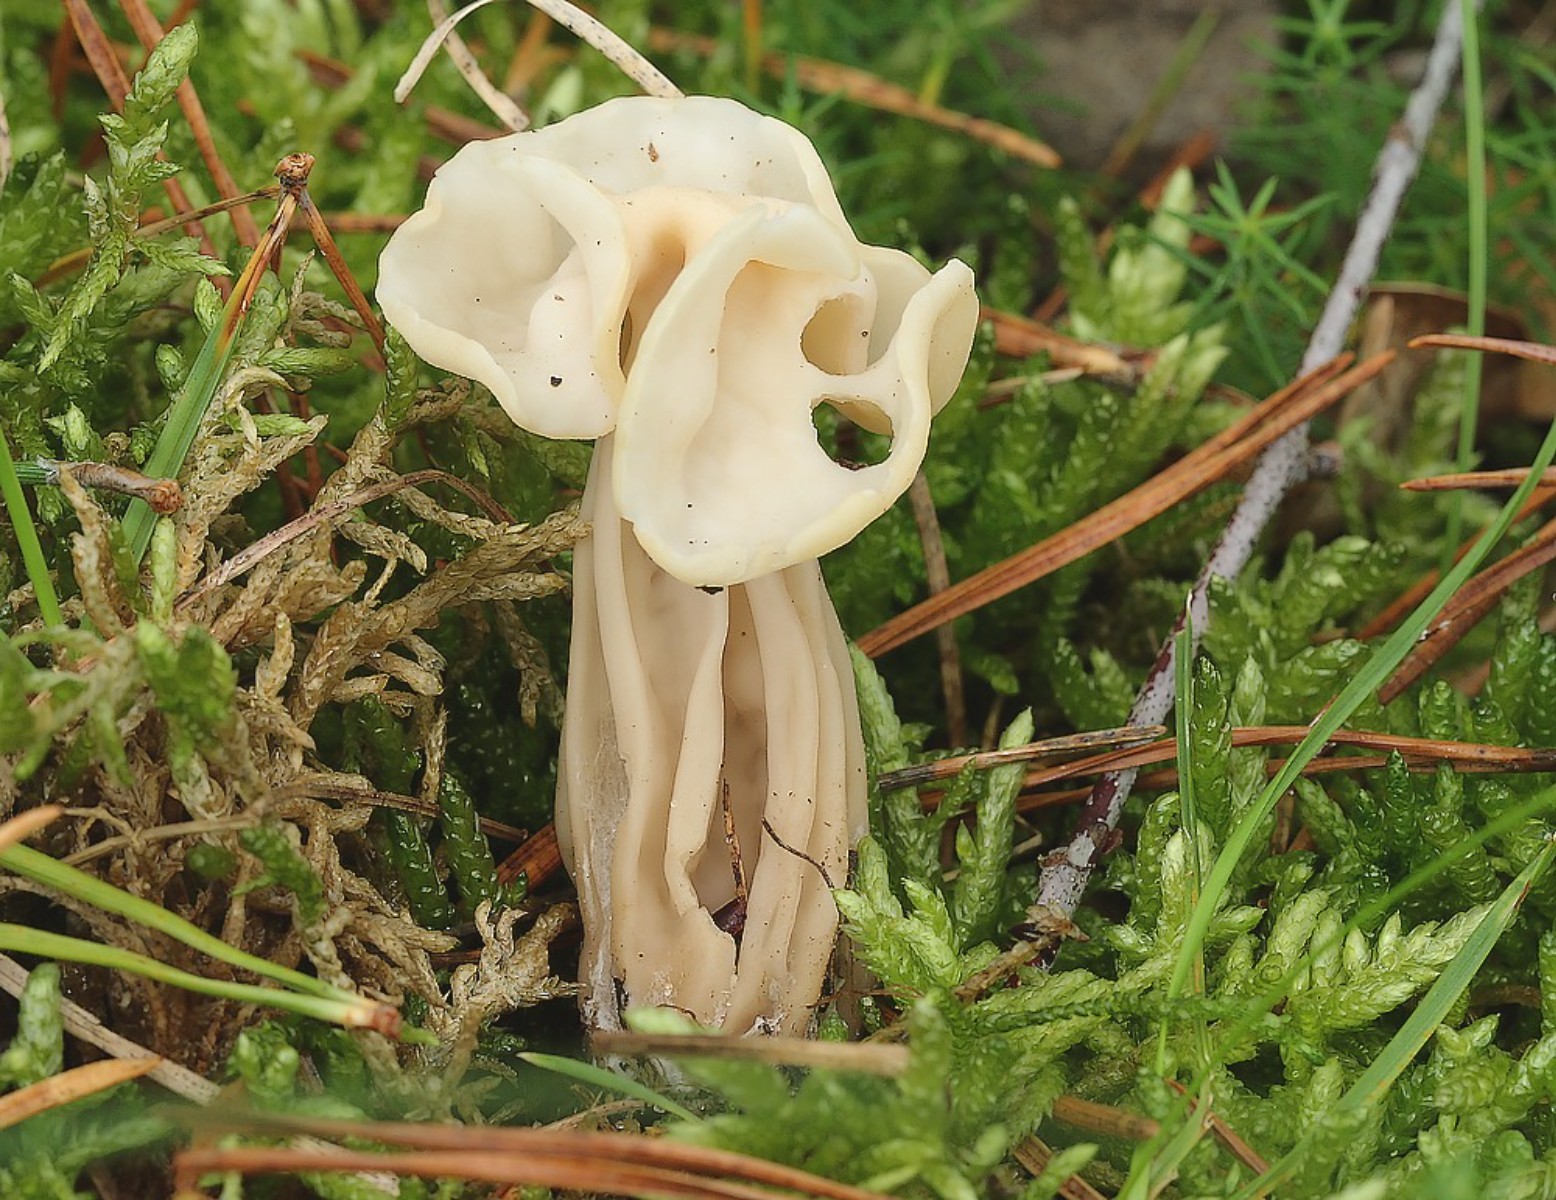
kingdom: Fungi
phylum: Ascomycota
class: Pezizomycetes
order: Pezizales
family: Helvellaceae
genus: Helvella
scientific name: Helvella crispa
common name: kruset foldhat
